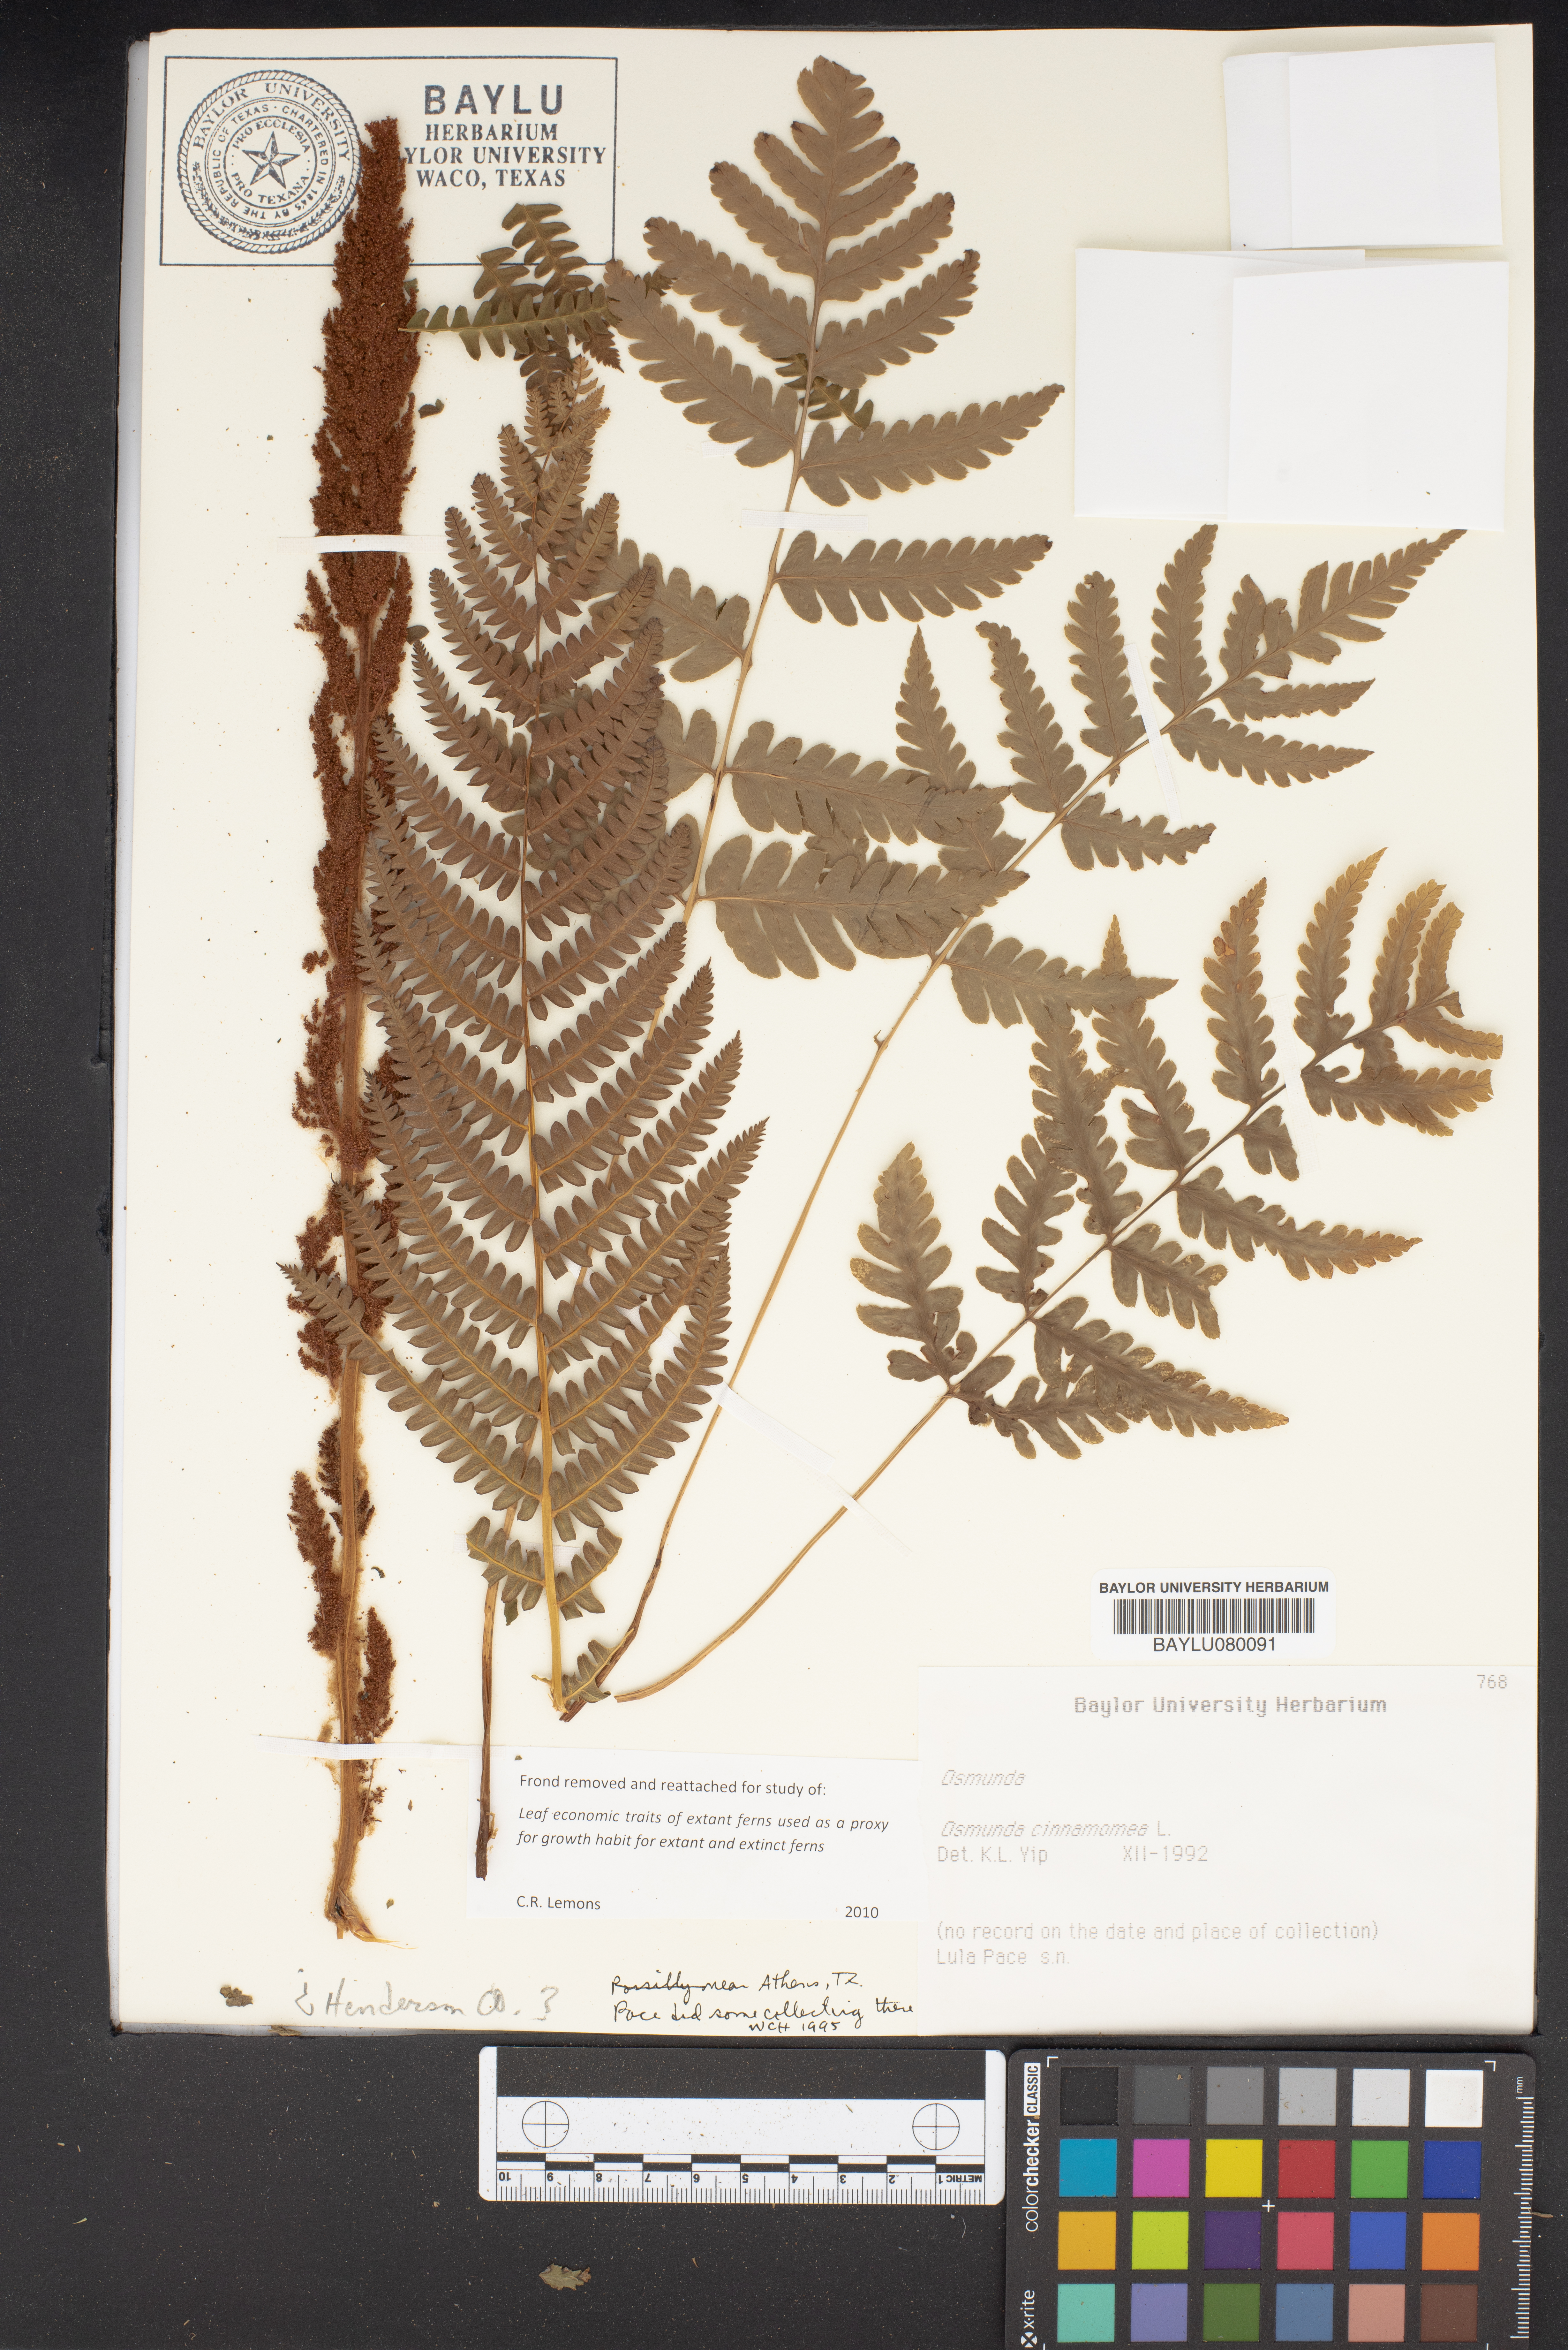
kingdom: Plantae
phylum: Tracheophyta
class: Polypodiopsida
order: Osmundales
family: Osmundaceae
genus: Osmundastrum
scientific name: Osmundastrum cinnamomeum
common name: Cinnamon fern
